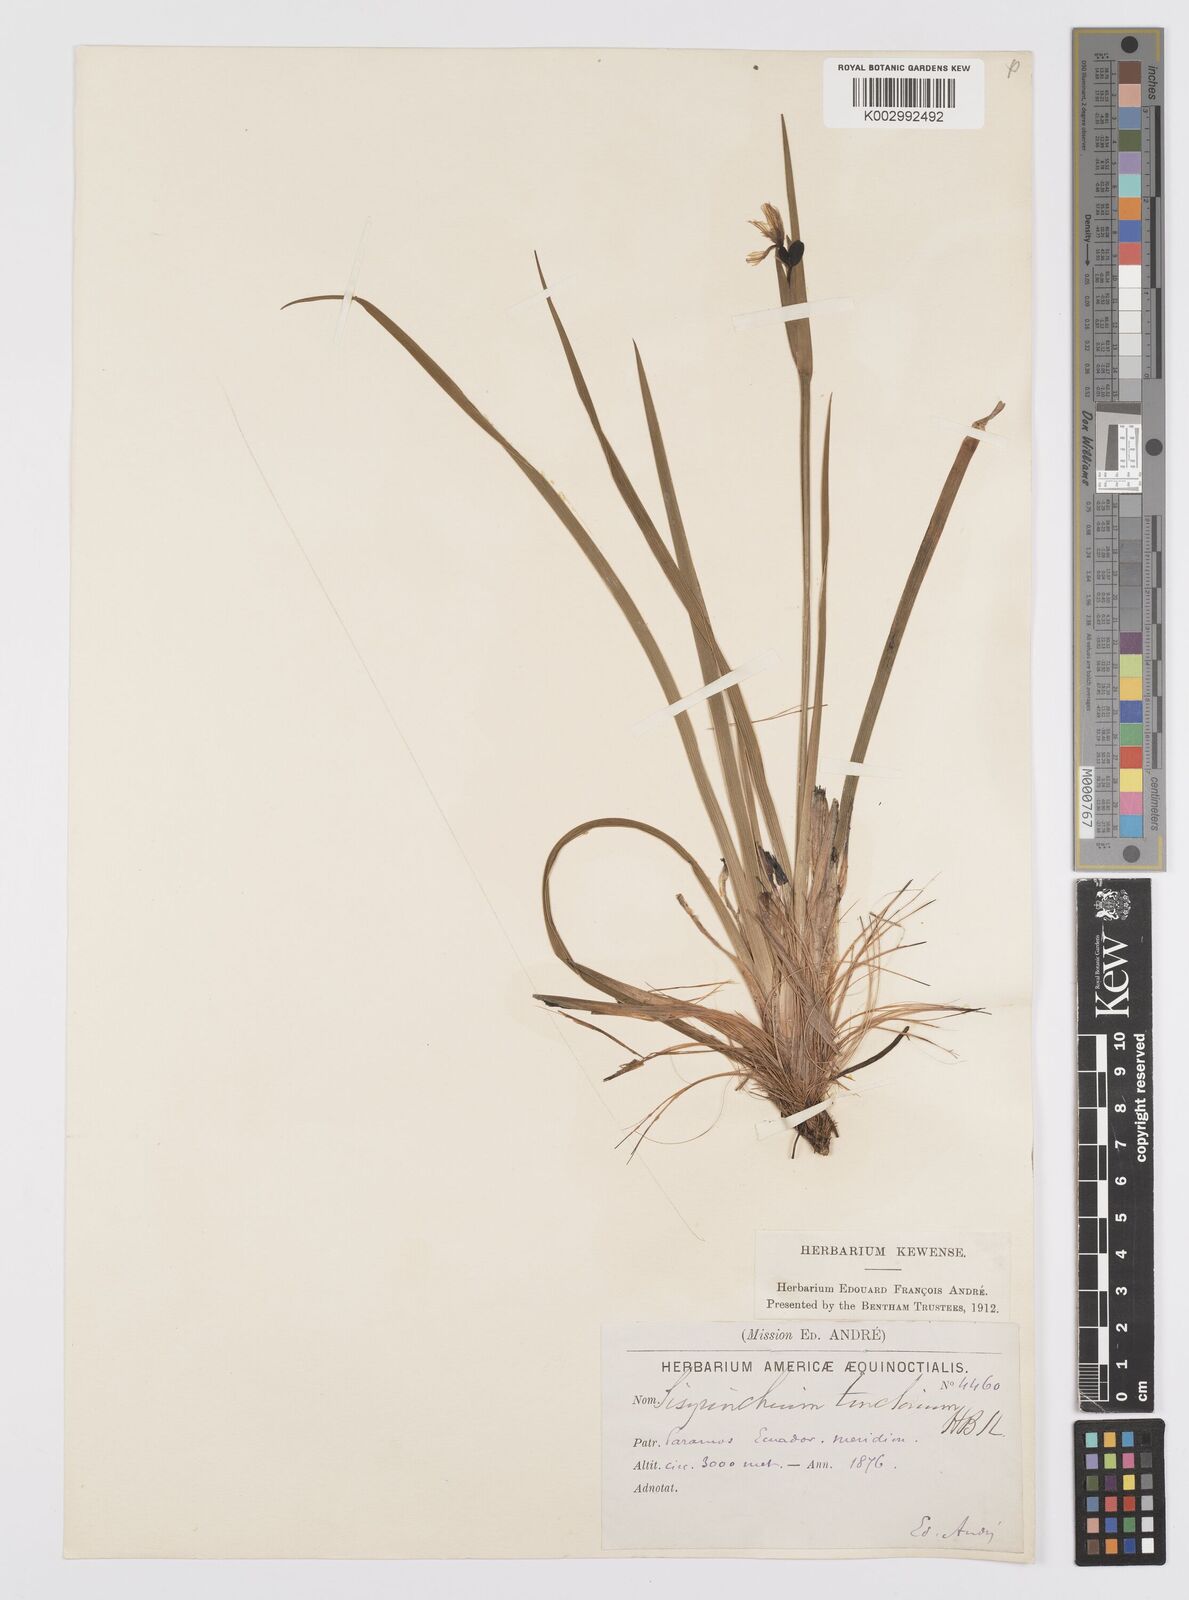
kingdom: Plantae
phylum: Tracheophyta
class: Liliopsida
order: Asparagales
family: Iridaceae
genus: Sisyrinchium
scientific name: Sisyrinchium tinctorium
